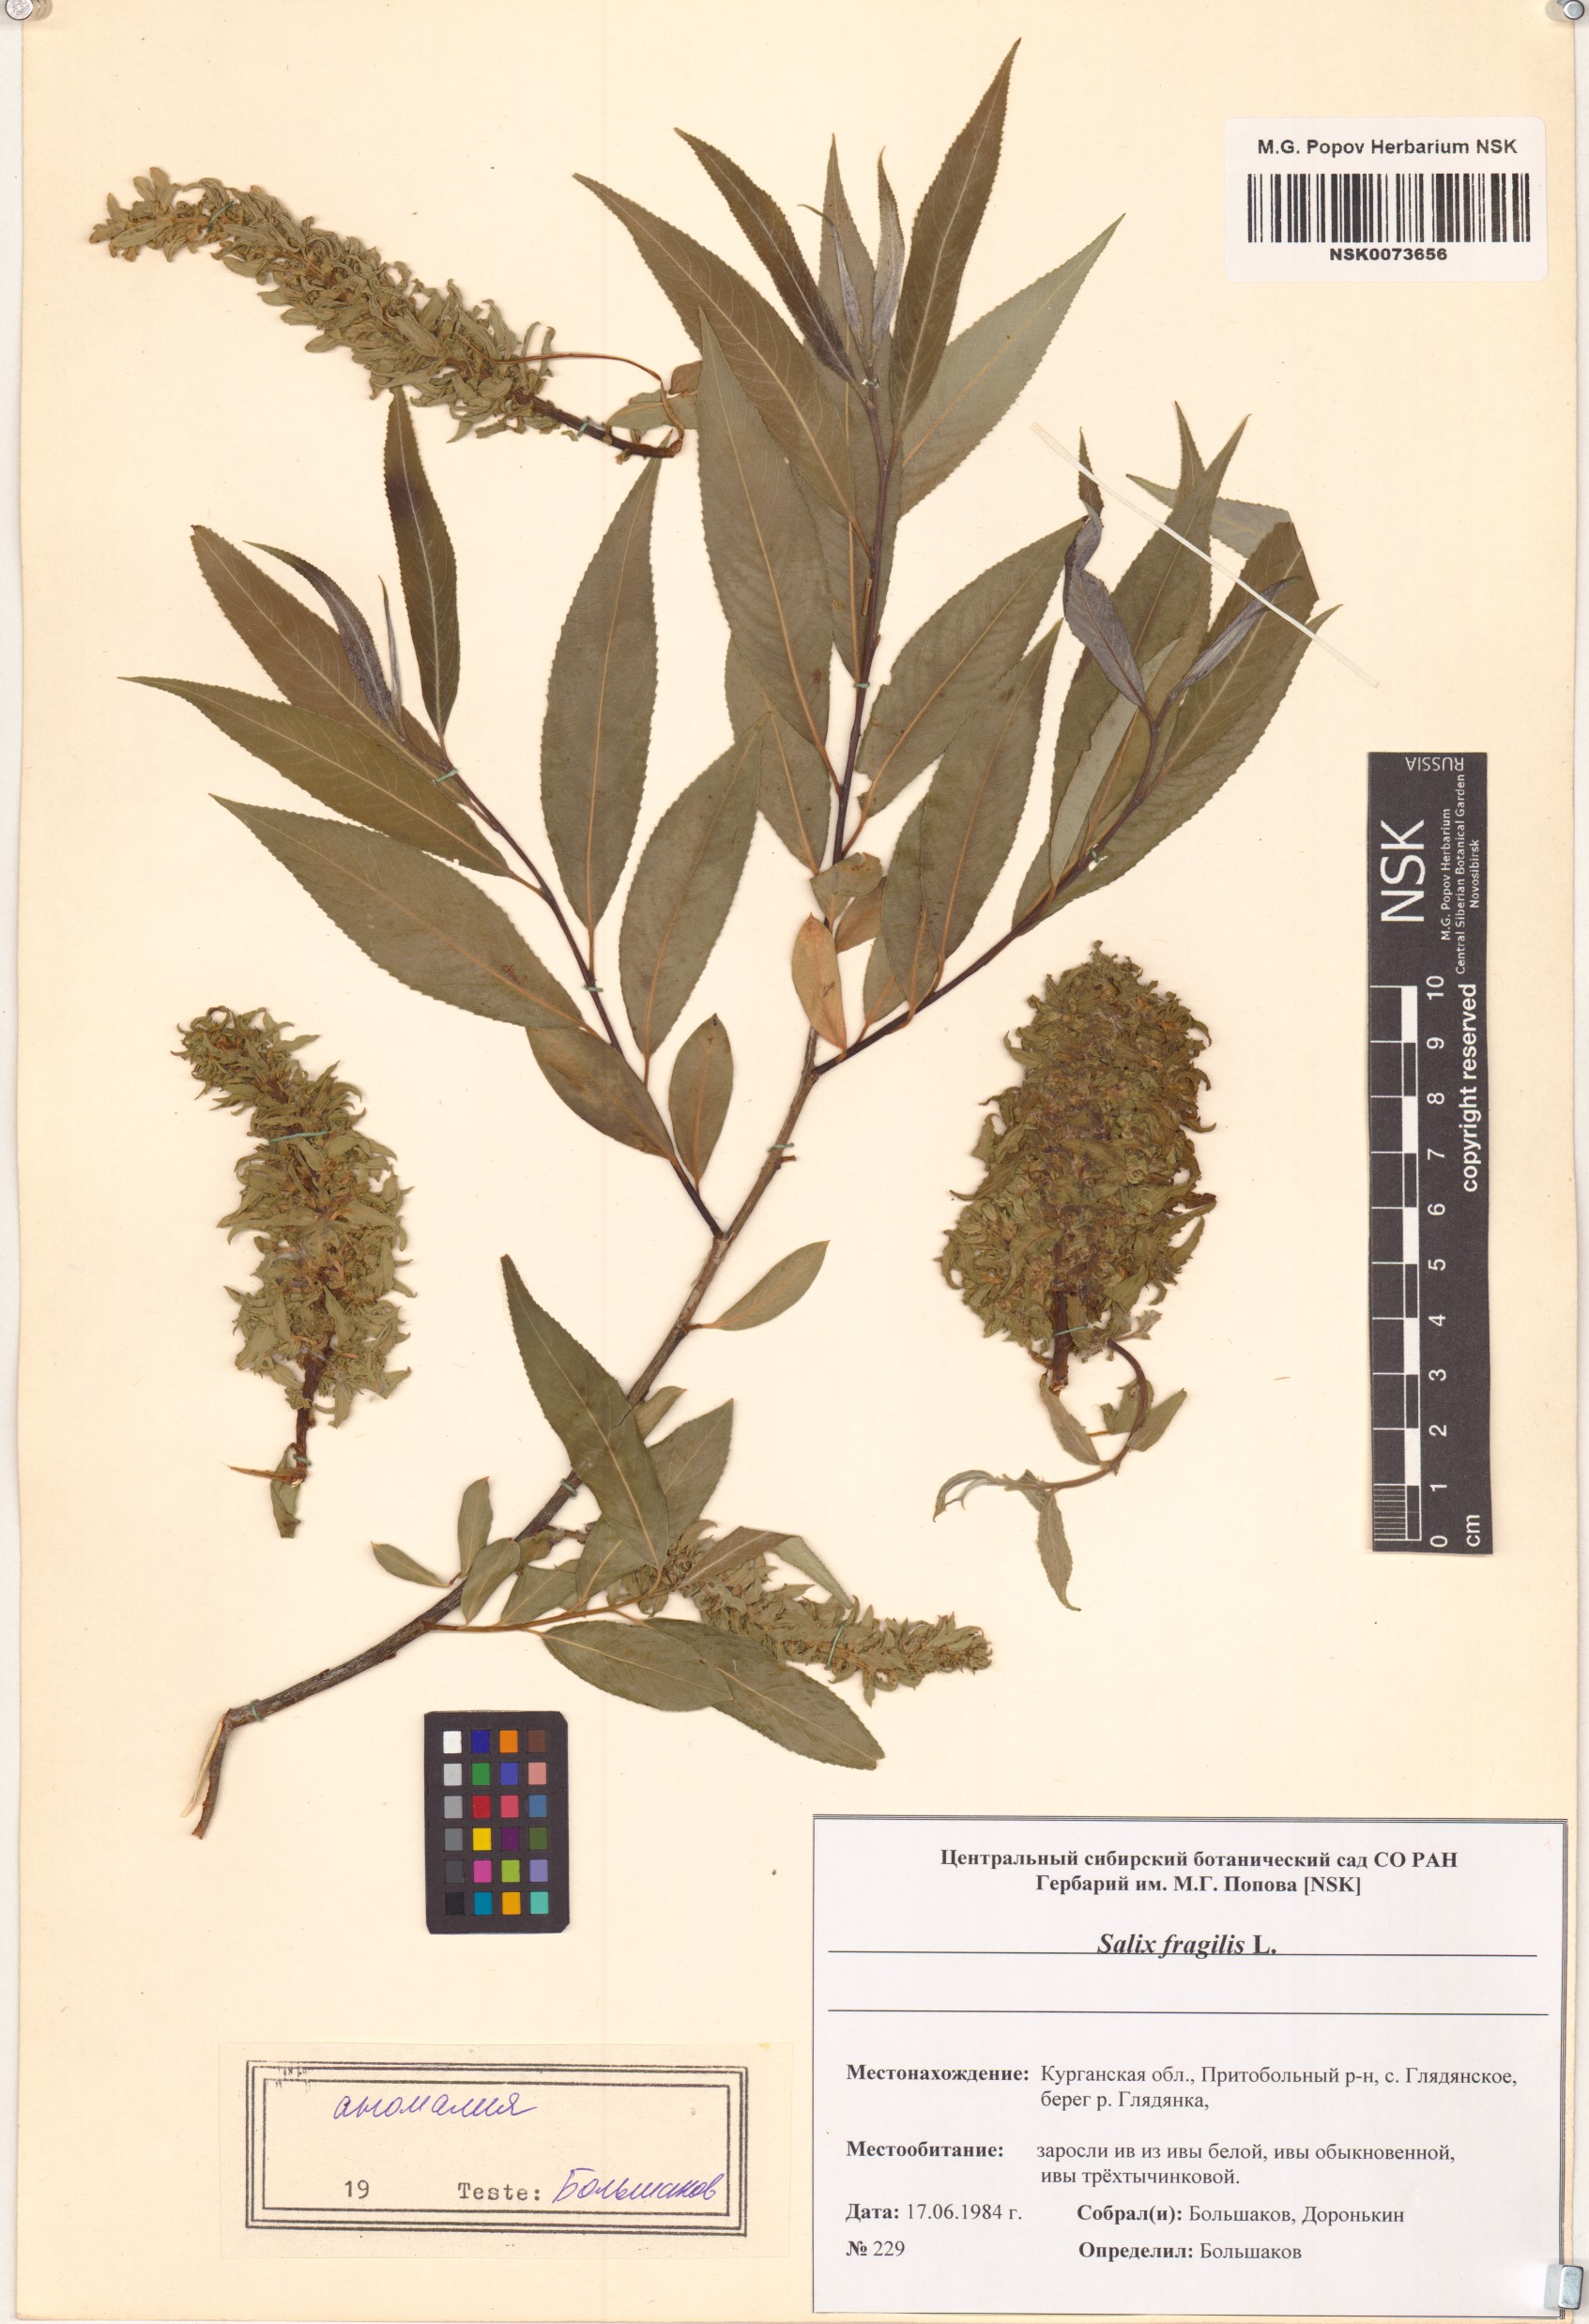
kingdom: Plantae
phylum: Tracheophyta
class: Magnoliopsida
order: Malpighiales
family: Salicaceae
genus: Salix
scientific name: Salix fragilis
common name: Crack willow
